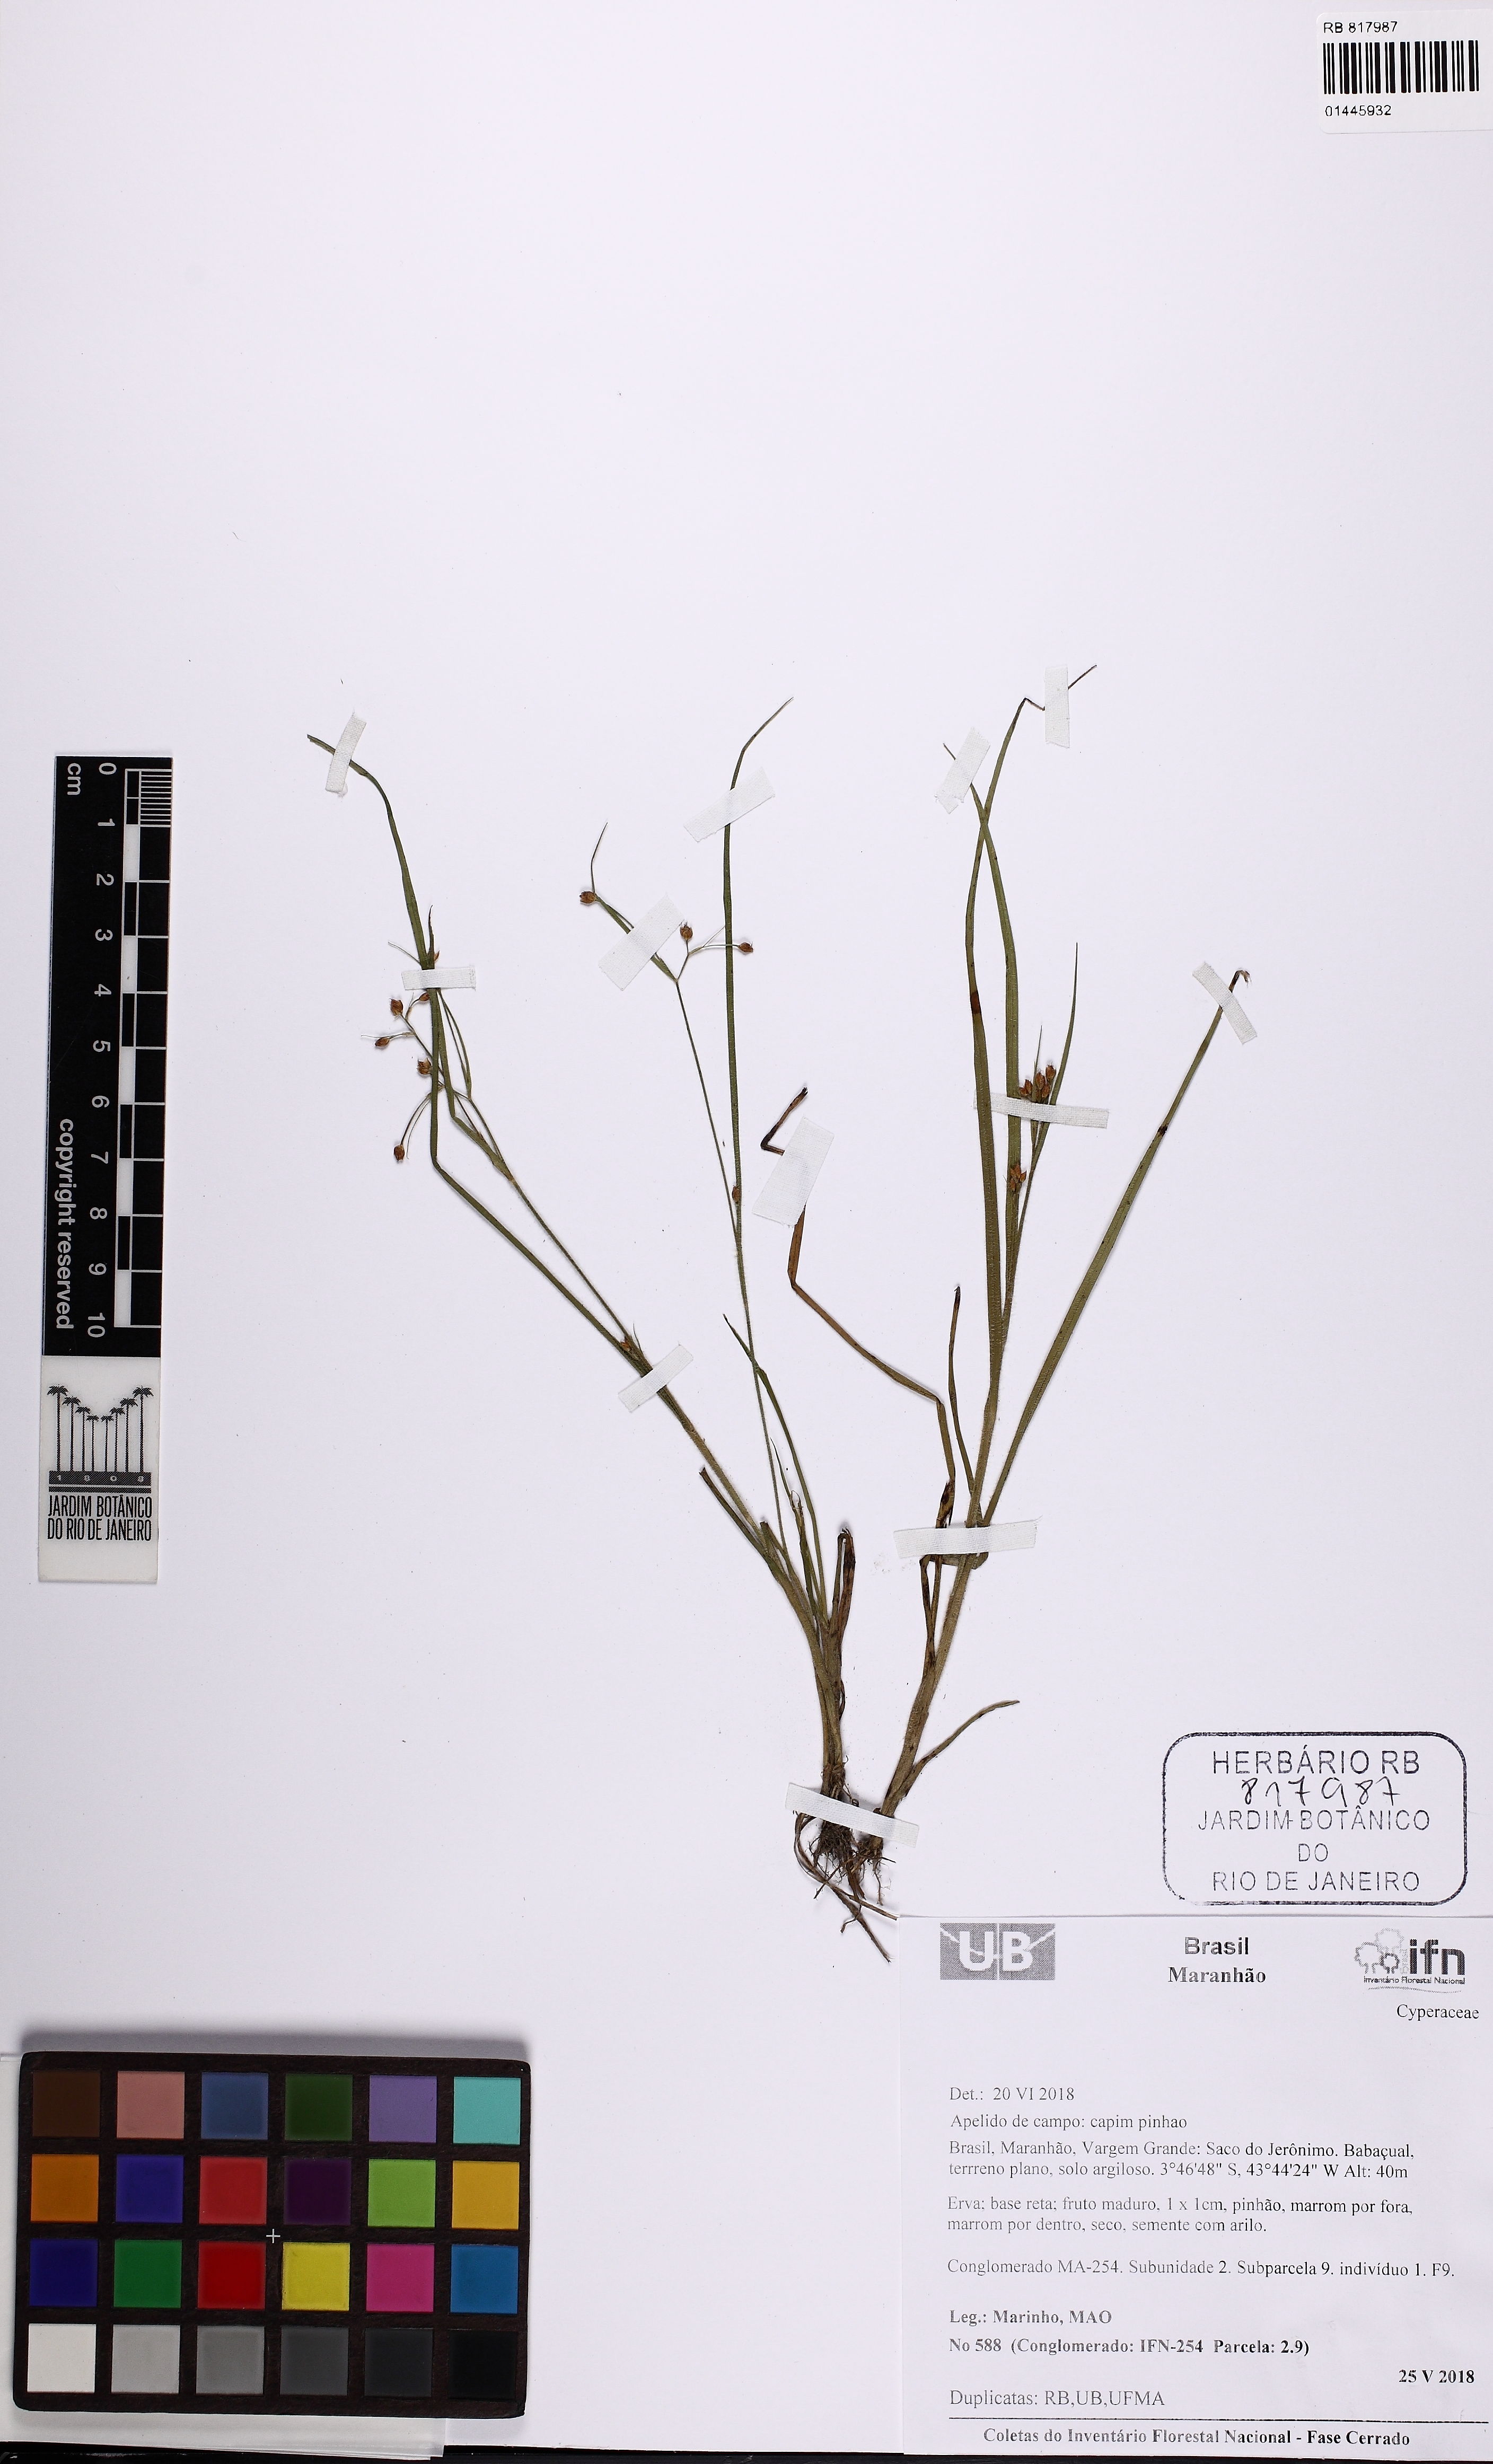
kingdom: Plantae
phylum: Tracheophyta
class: Liliopsida
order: Poales
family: Cyperaceae
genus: Rhynchospora
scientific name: Rhynchospora
